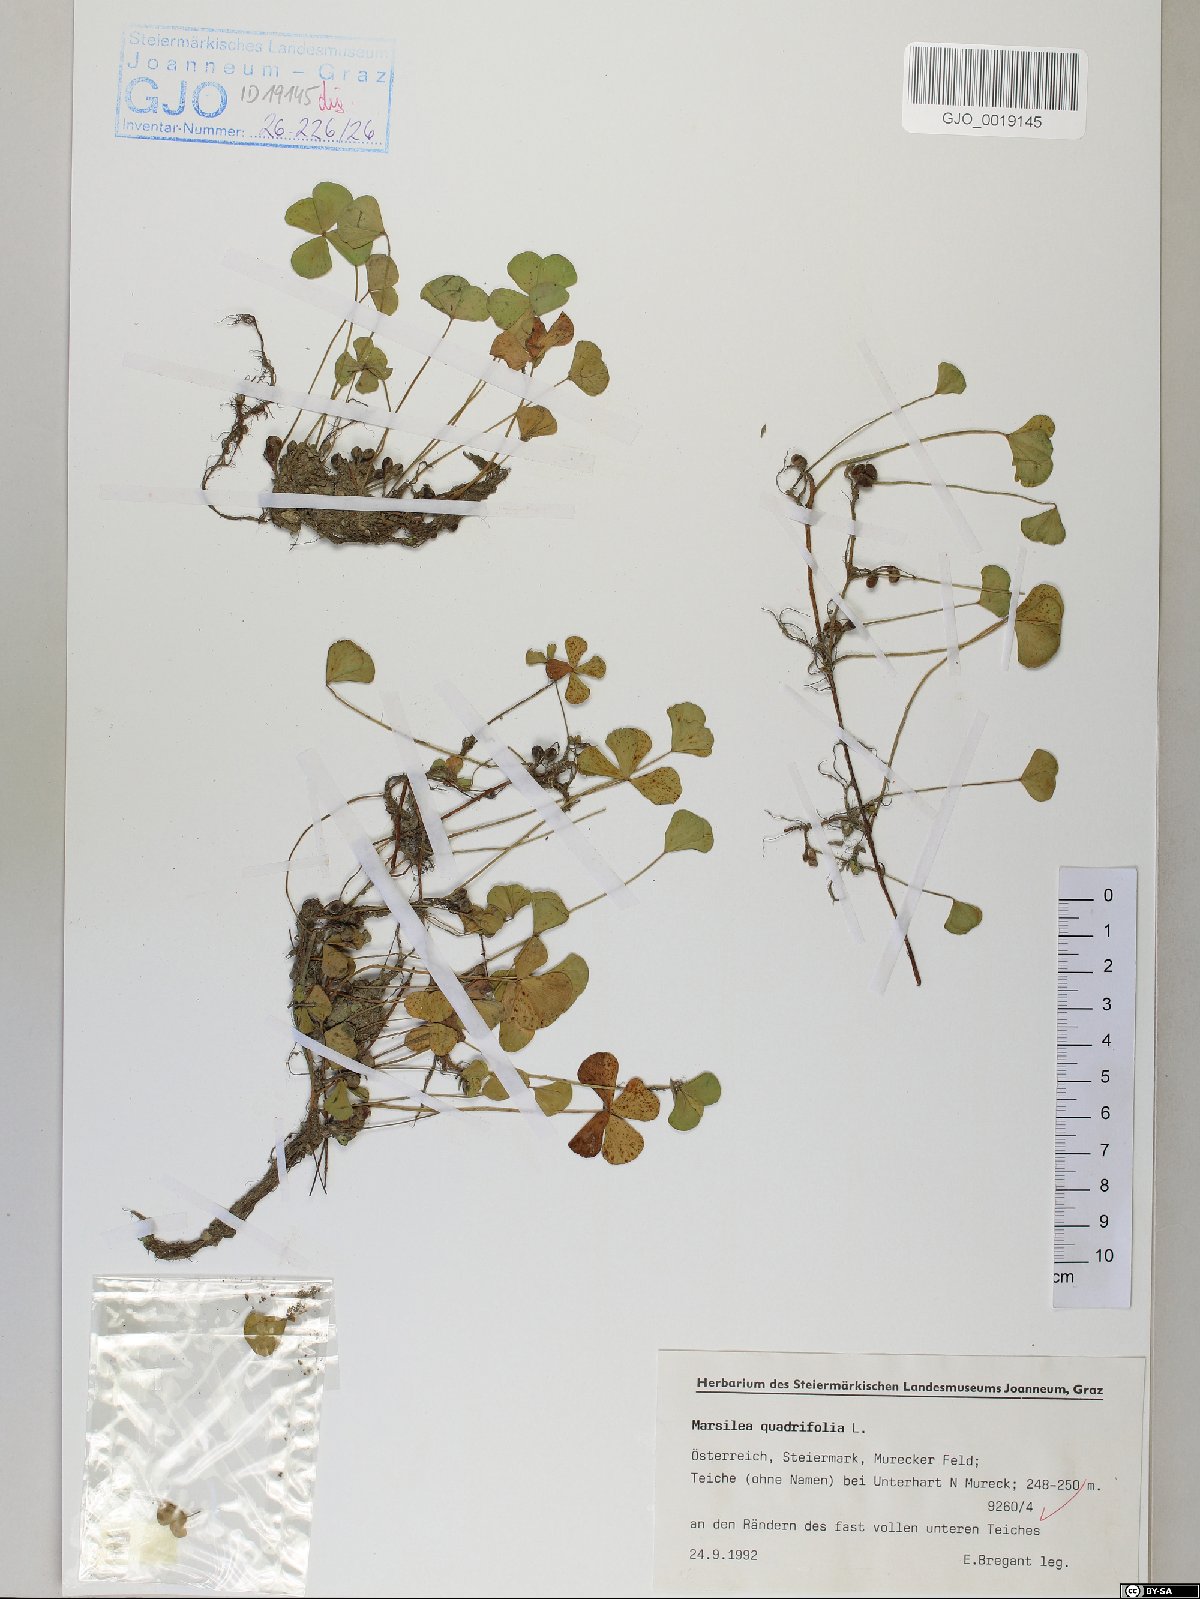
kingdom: Plantae
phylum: Tracheophyta
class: Polypodiopsida
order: Salviniales
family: Marsileaceae
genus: Marsilea
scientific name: Marsilea quadrifolia
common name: Water shamrock
